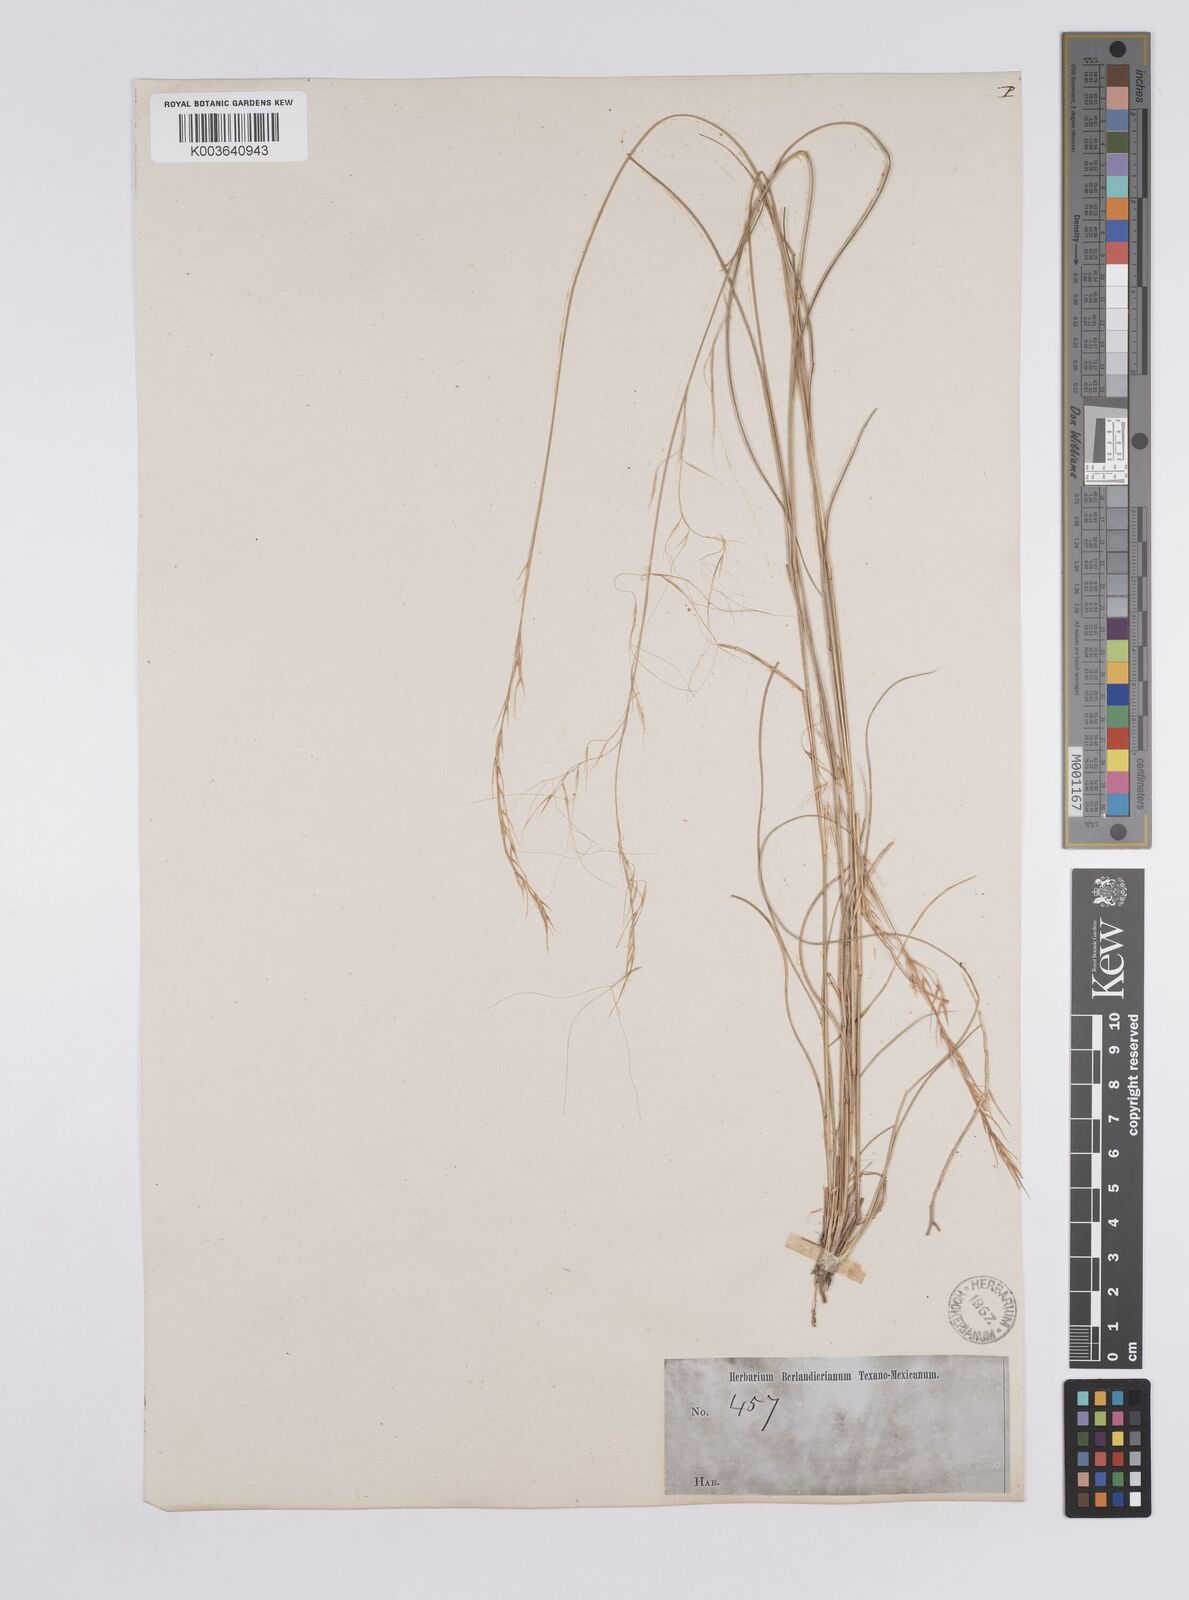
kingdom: Plantae
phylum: Tracheophyta
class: Liliopsida
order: Poales
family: Poaceae
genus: Aristida
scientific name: Aristida purpurea
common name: Purple threeawn
